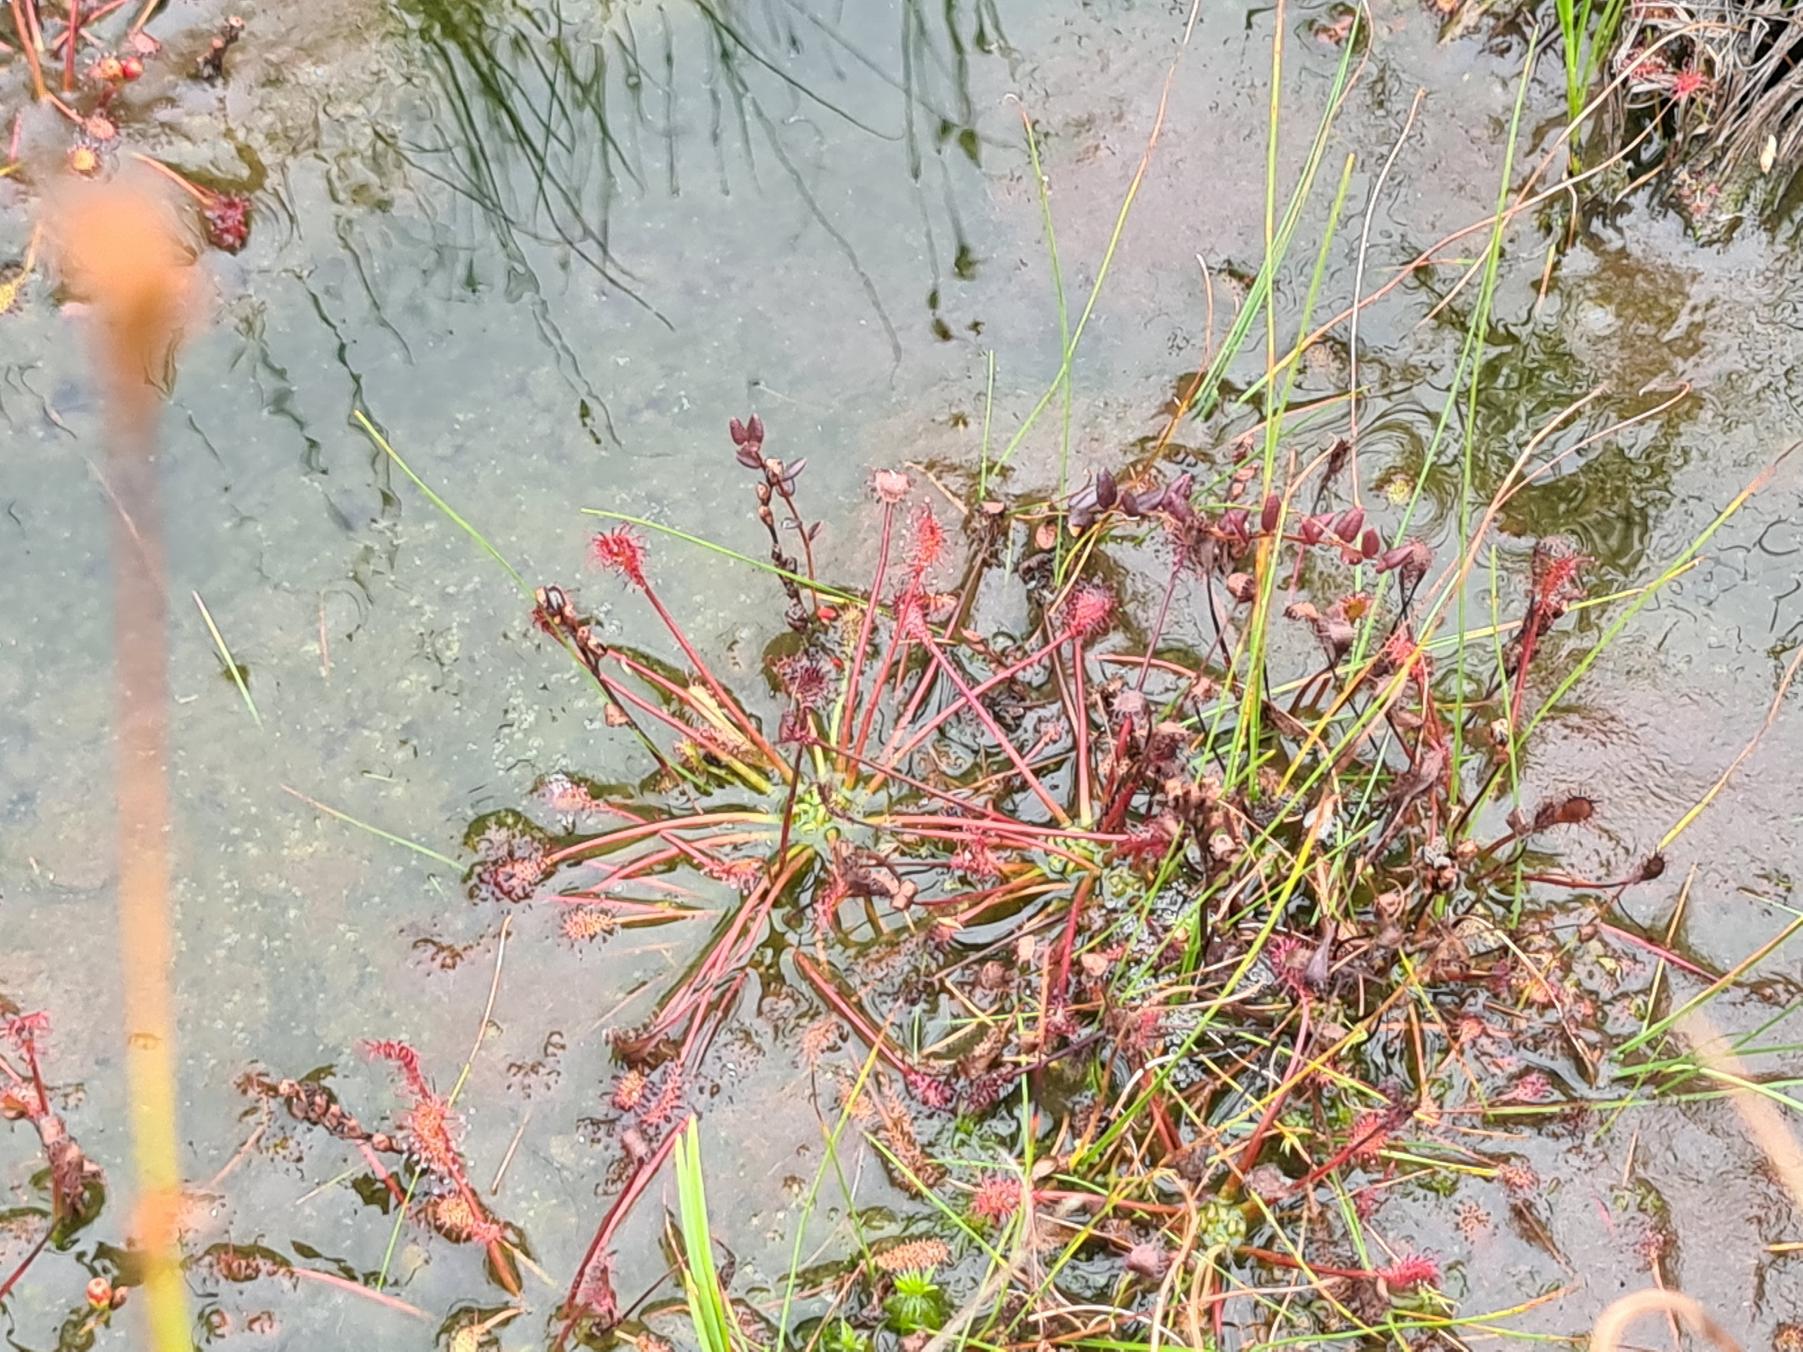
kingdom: Plantae
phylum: Tracheophyta
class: Magnoliopsida
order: Caryophyllales
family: Droseraceae
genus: Drosera
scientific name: Drosera intermedia
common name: Liden soldug
